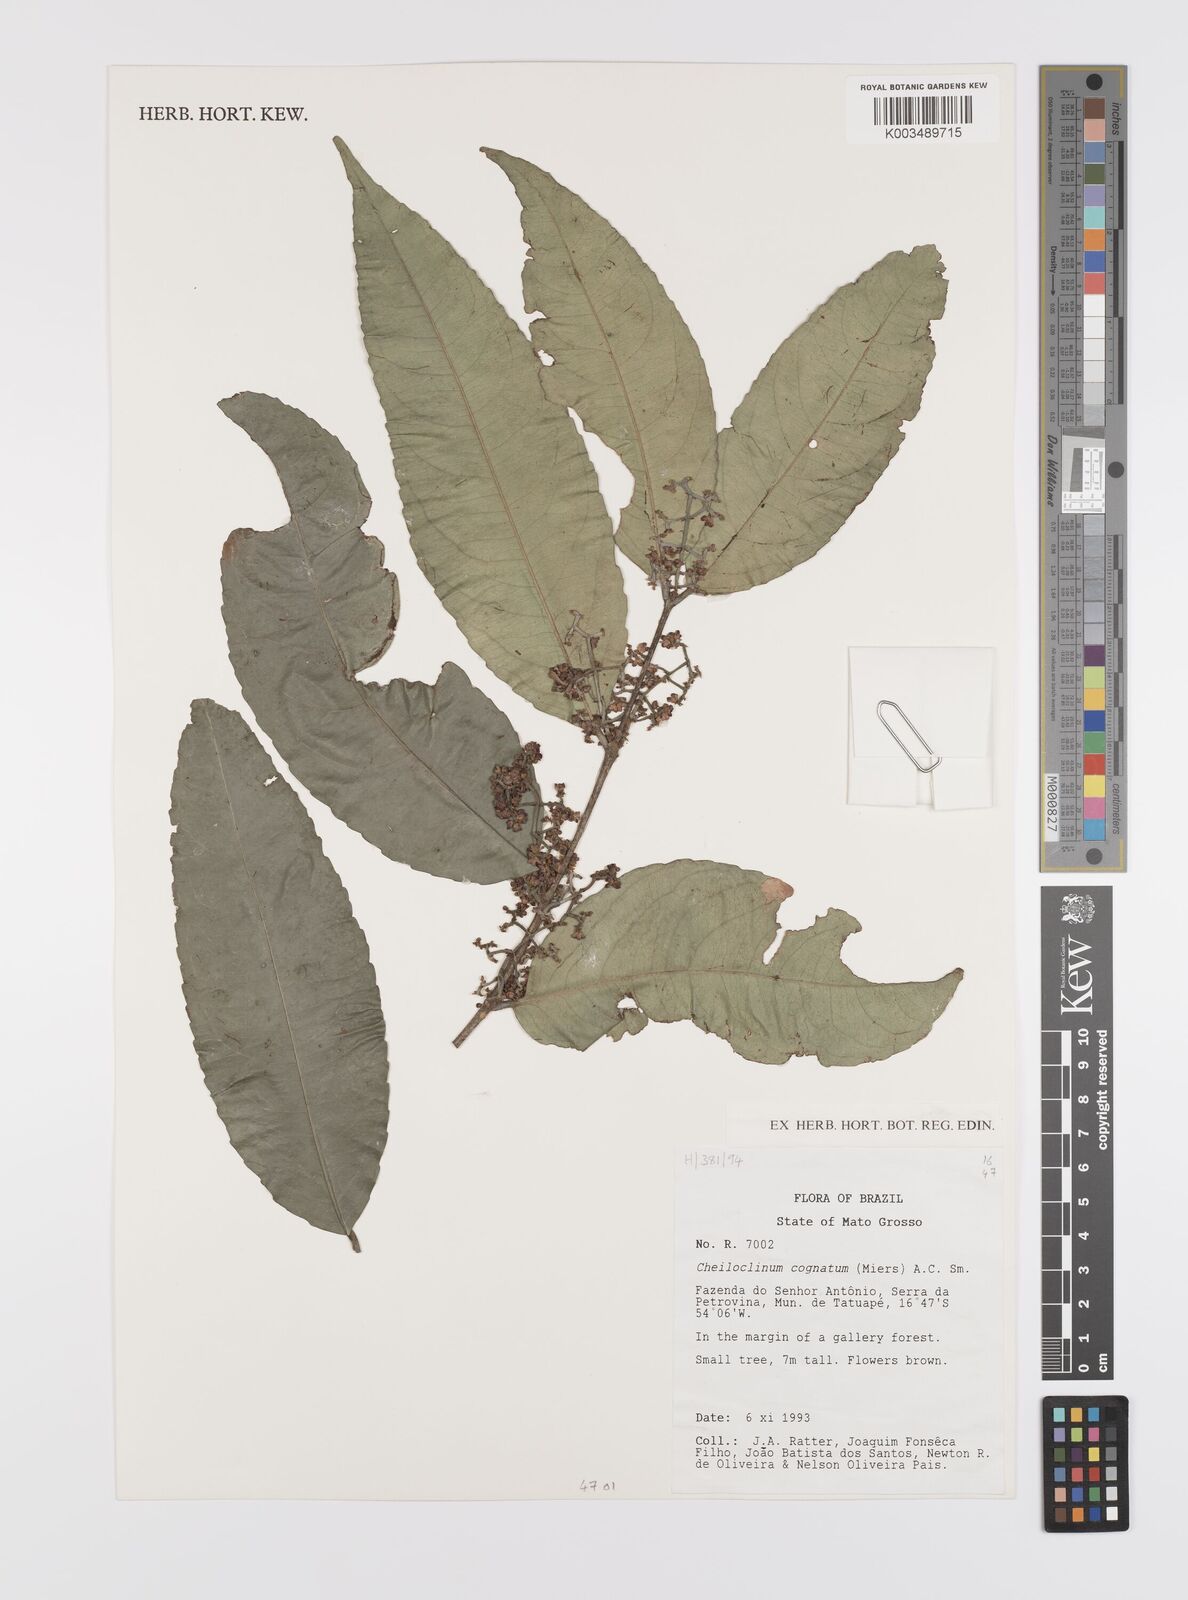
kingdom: Plantae
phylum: Tracheophyta
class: Magnoliopsida
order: Celastrales
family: Celastraceae
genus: Cheiloclinium
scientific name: Cheiloclinium cognatum
